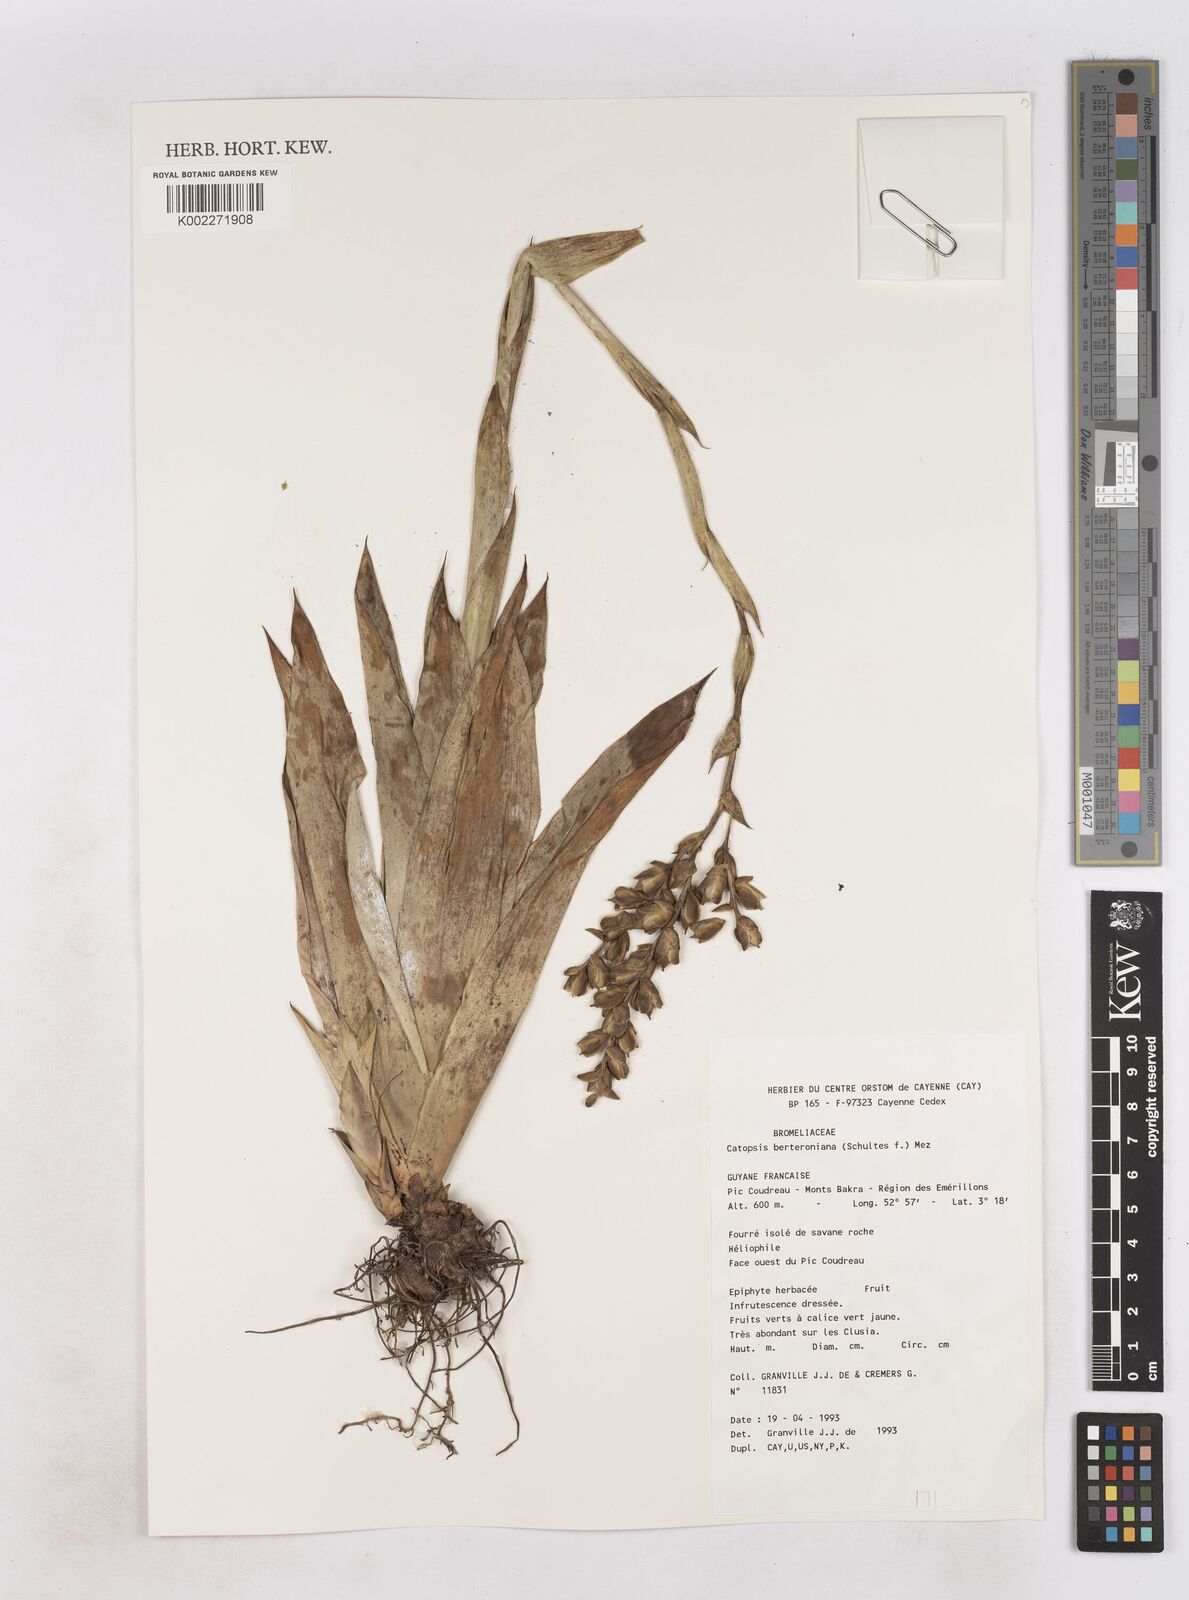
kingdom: Plantae
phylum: Tracheophyta
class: Liliopsida
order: Poales
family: Bromeliaceae
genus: Catopsis
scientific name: Catopsis berteroniana
